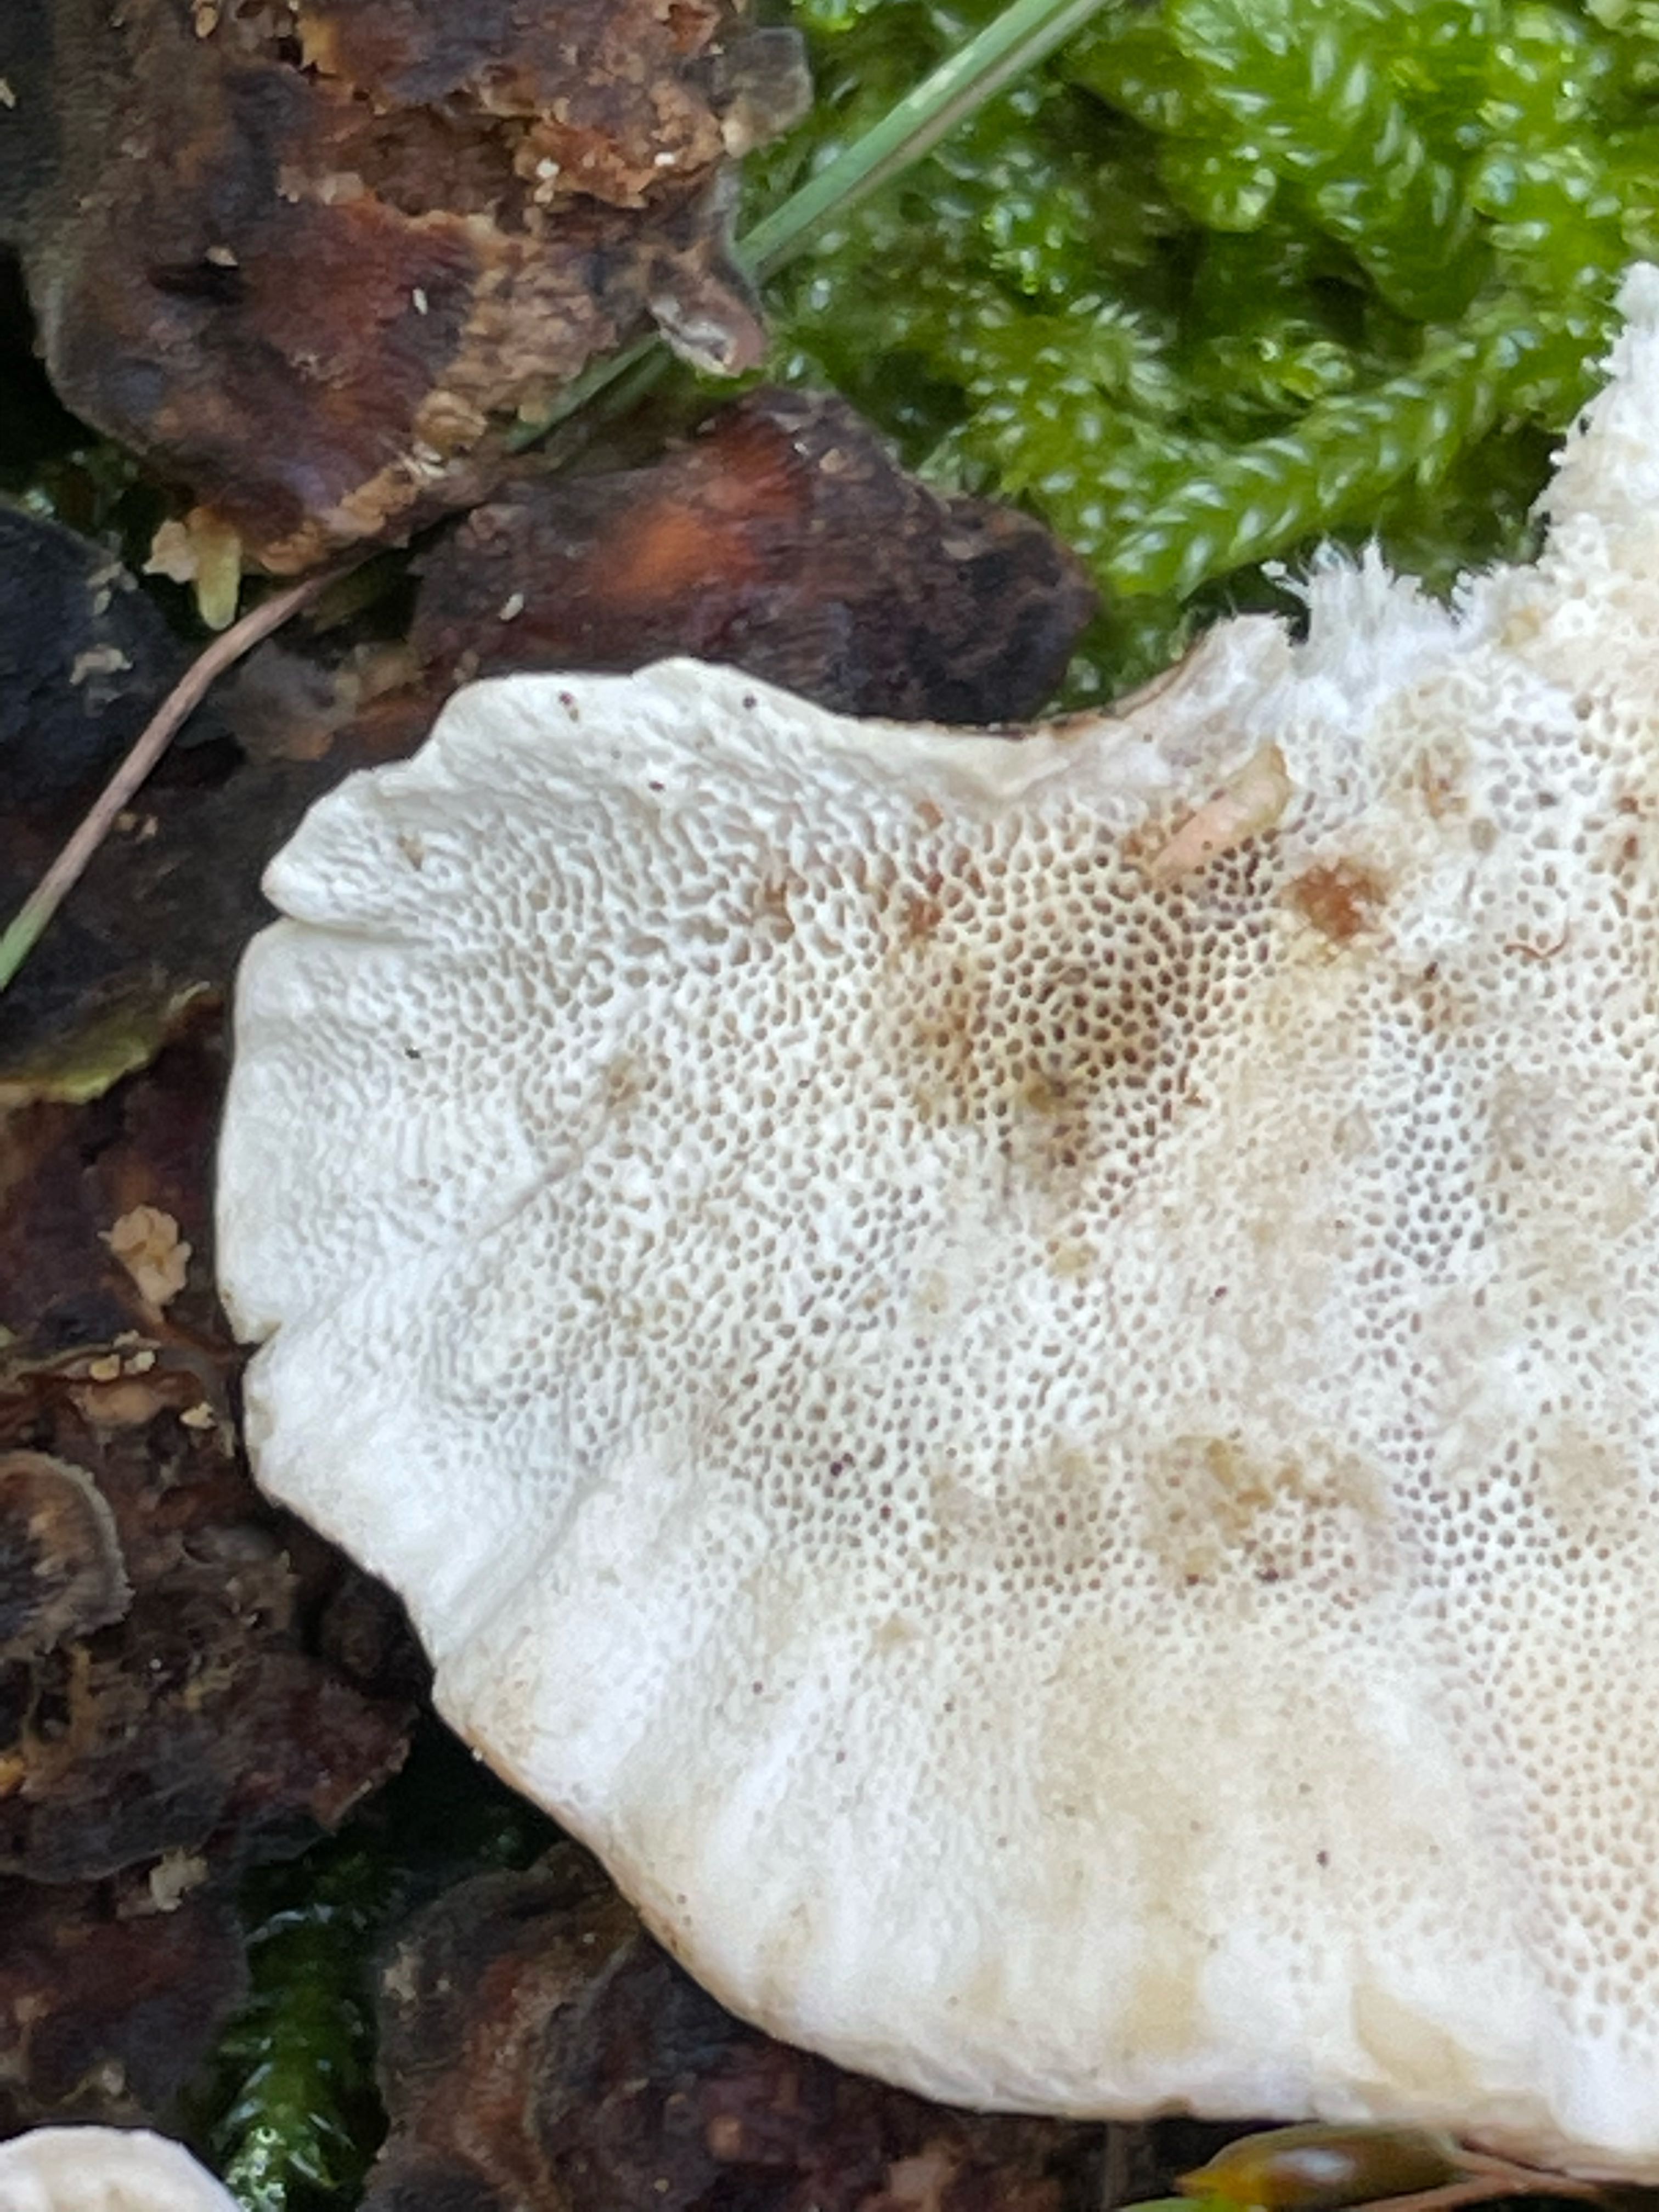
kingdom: Fungi
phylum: Basidiomycota
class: Agaricomycetes
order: Polyporales
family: Polyporaceae
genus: Trametes
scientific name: Trametes versicolor
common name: broget læderporesvamp
